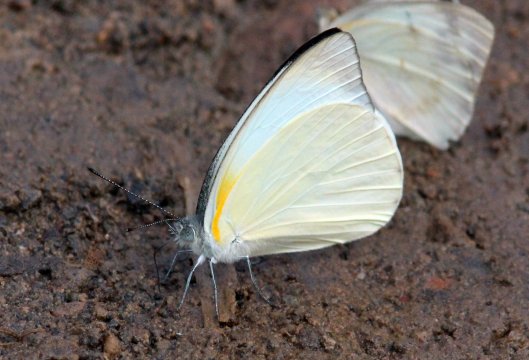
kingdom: Animalia
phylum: Arthropoda
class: Insecta
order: Lepidoptera
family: Pieridae
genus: Glutophrissa
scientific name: Glutophrissa epaphia
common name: Diverse White
